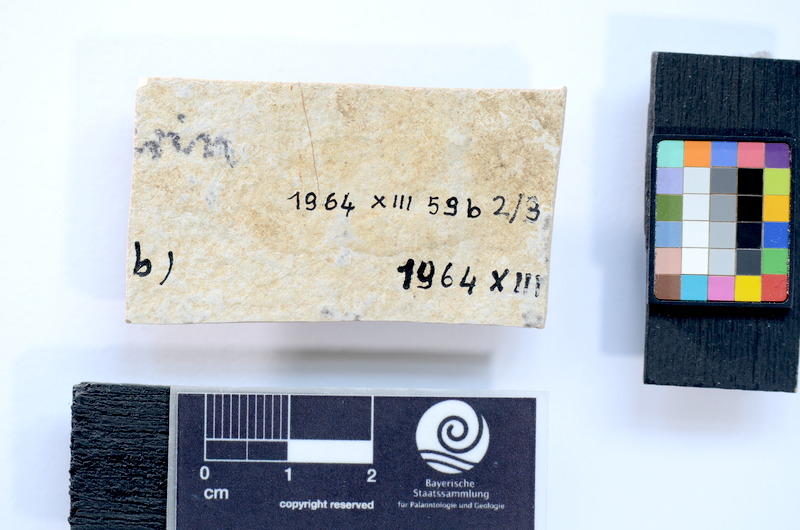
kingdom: Animalia
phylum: Chordata
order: Salmoniformes
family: Orthogonikleithridae
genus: Leptolepides
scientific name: Leptolepides
